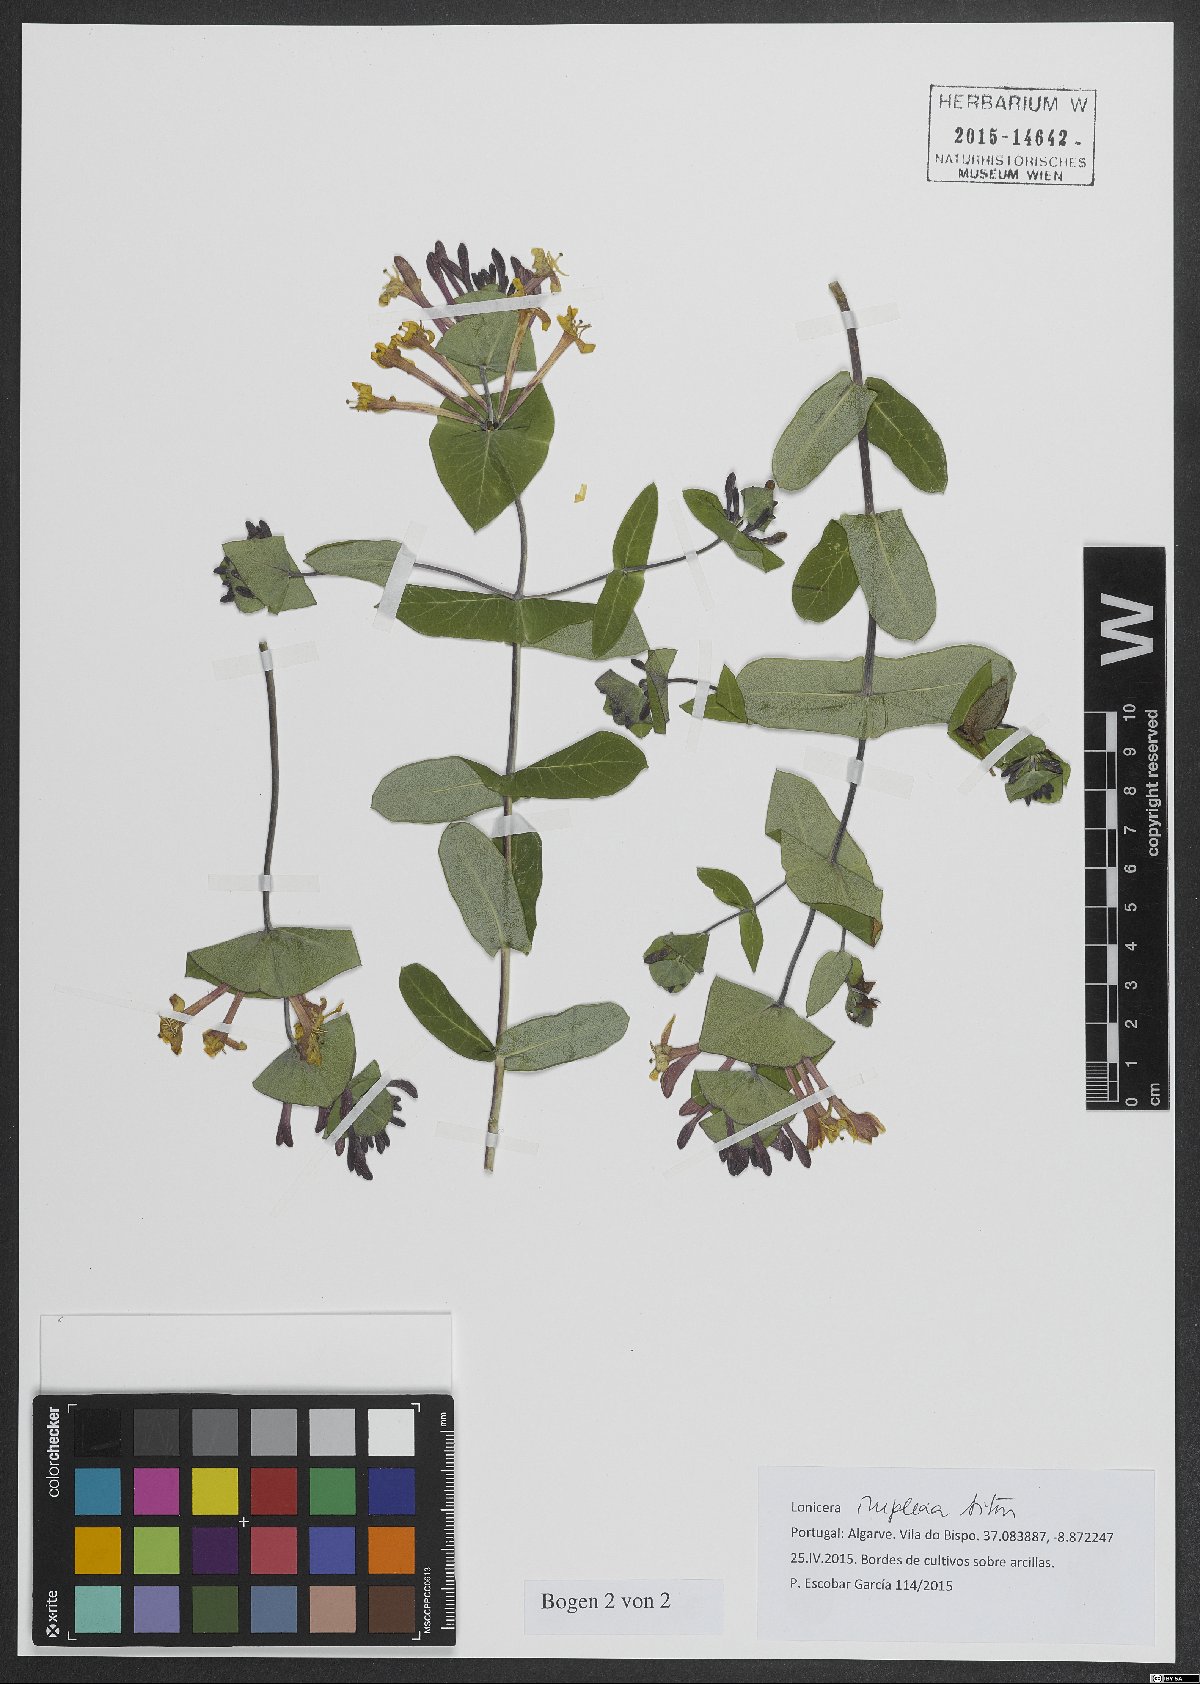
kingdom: Plantae
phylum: Tracheophyta
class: Magnoliopsida
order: Dipsacales
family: Caprifoliaceae
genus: Lonicera
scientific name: Lonicera implexa
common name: Minorca honeysuckle
